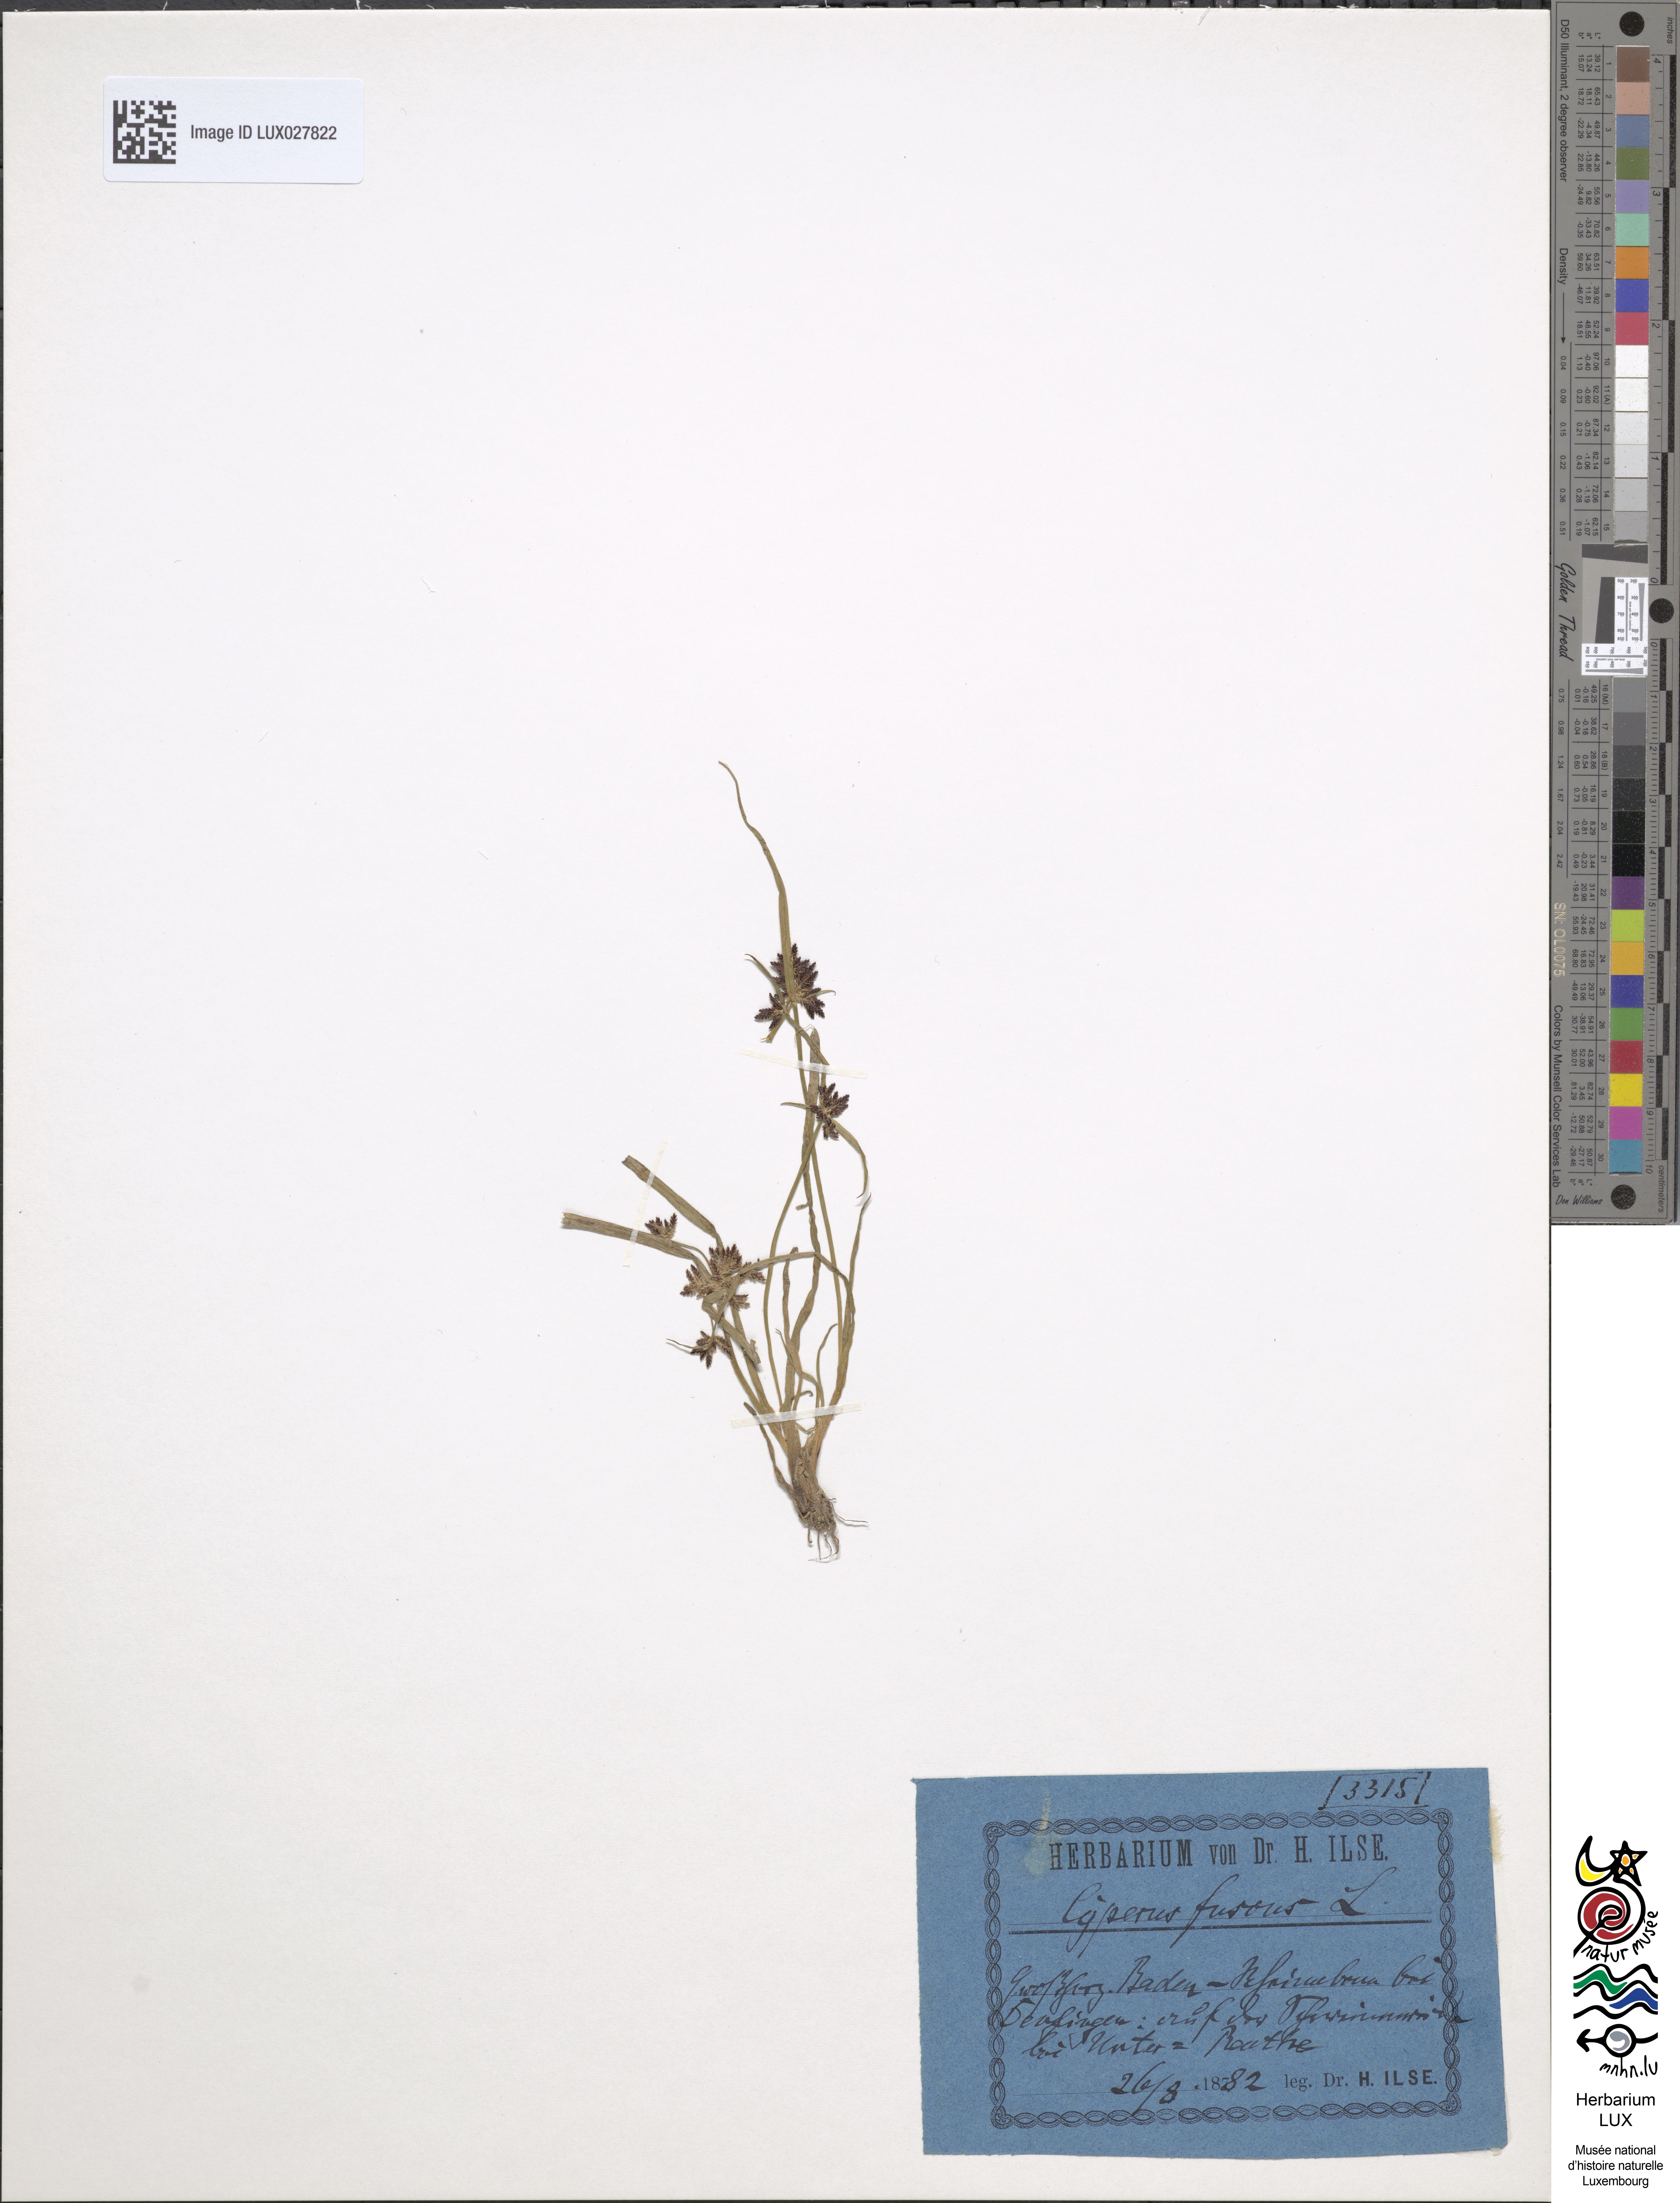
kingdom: Plantae
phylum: Tracheophyta
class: Liliopsida
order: Poales
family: Cyperaceae
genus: Cyperus
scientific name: Cyperus fuscus
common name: Brown galingale
